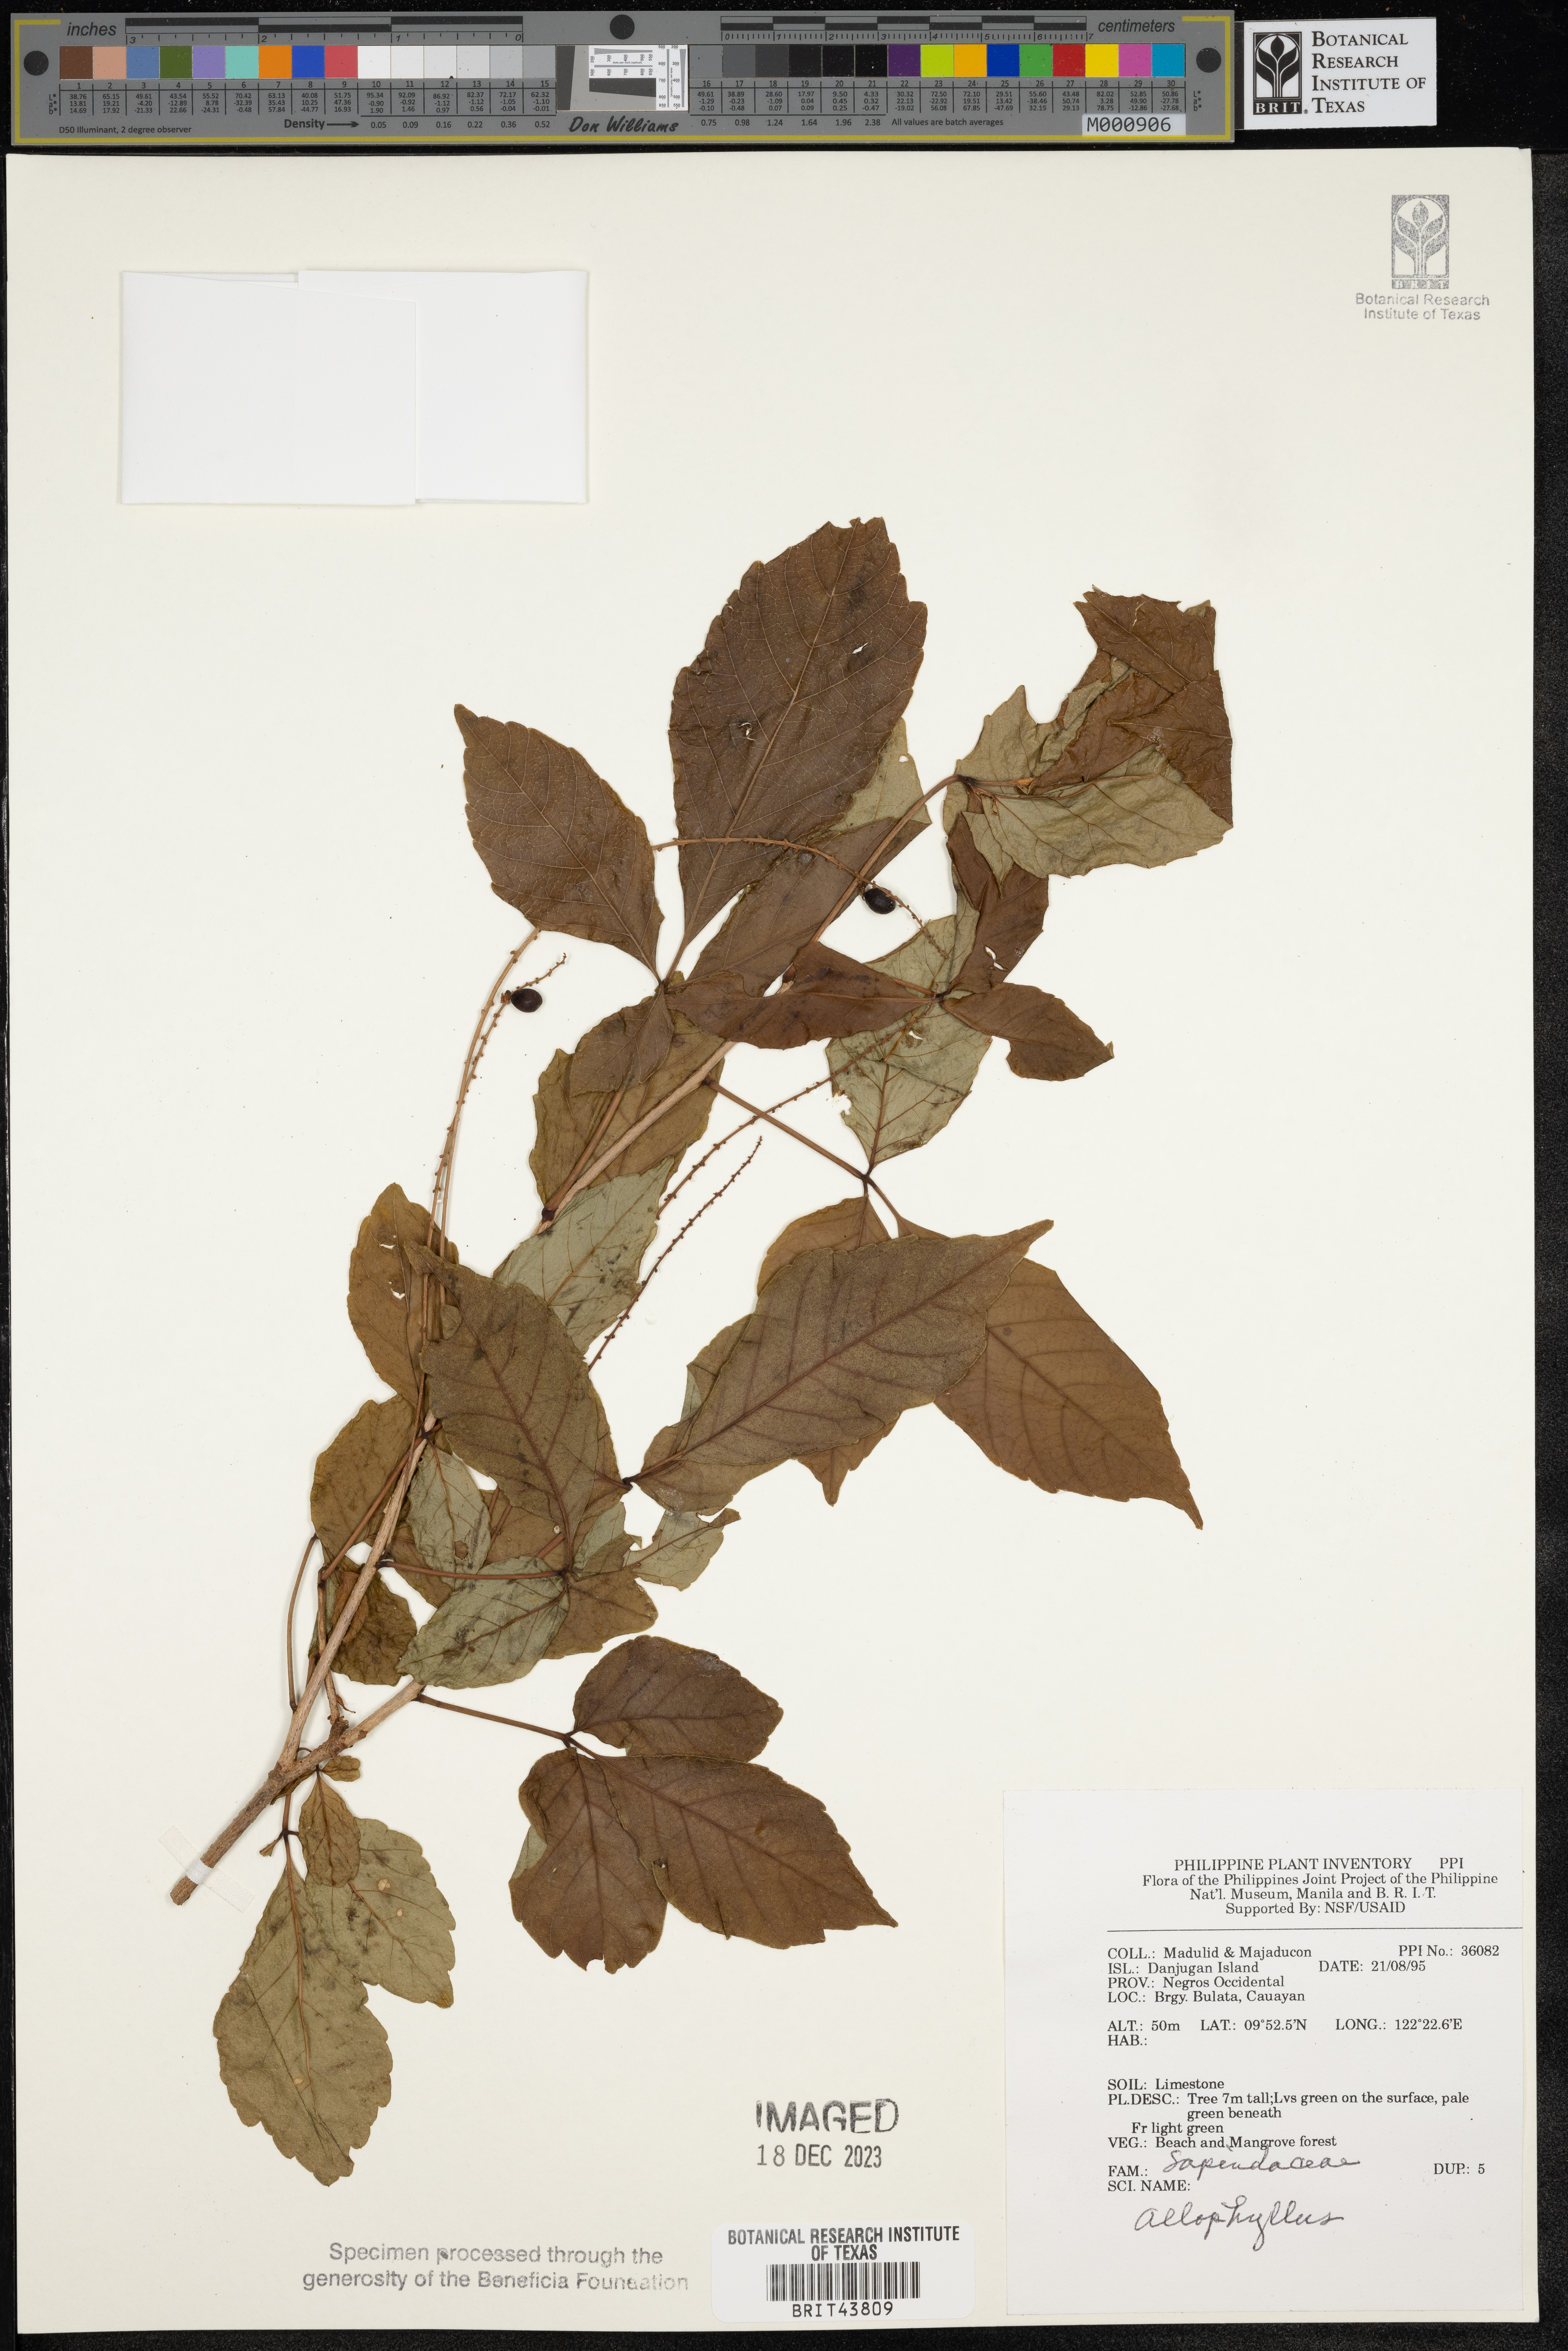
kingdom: Plantae
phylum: Tracheophyta
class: Magnoliopsida
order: Sapindales
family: Sapindaceae
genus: Allophylus
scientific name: Allophylus
